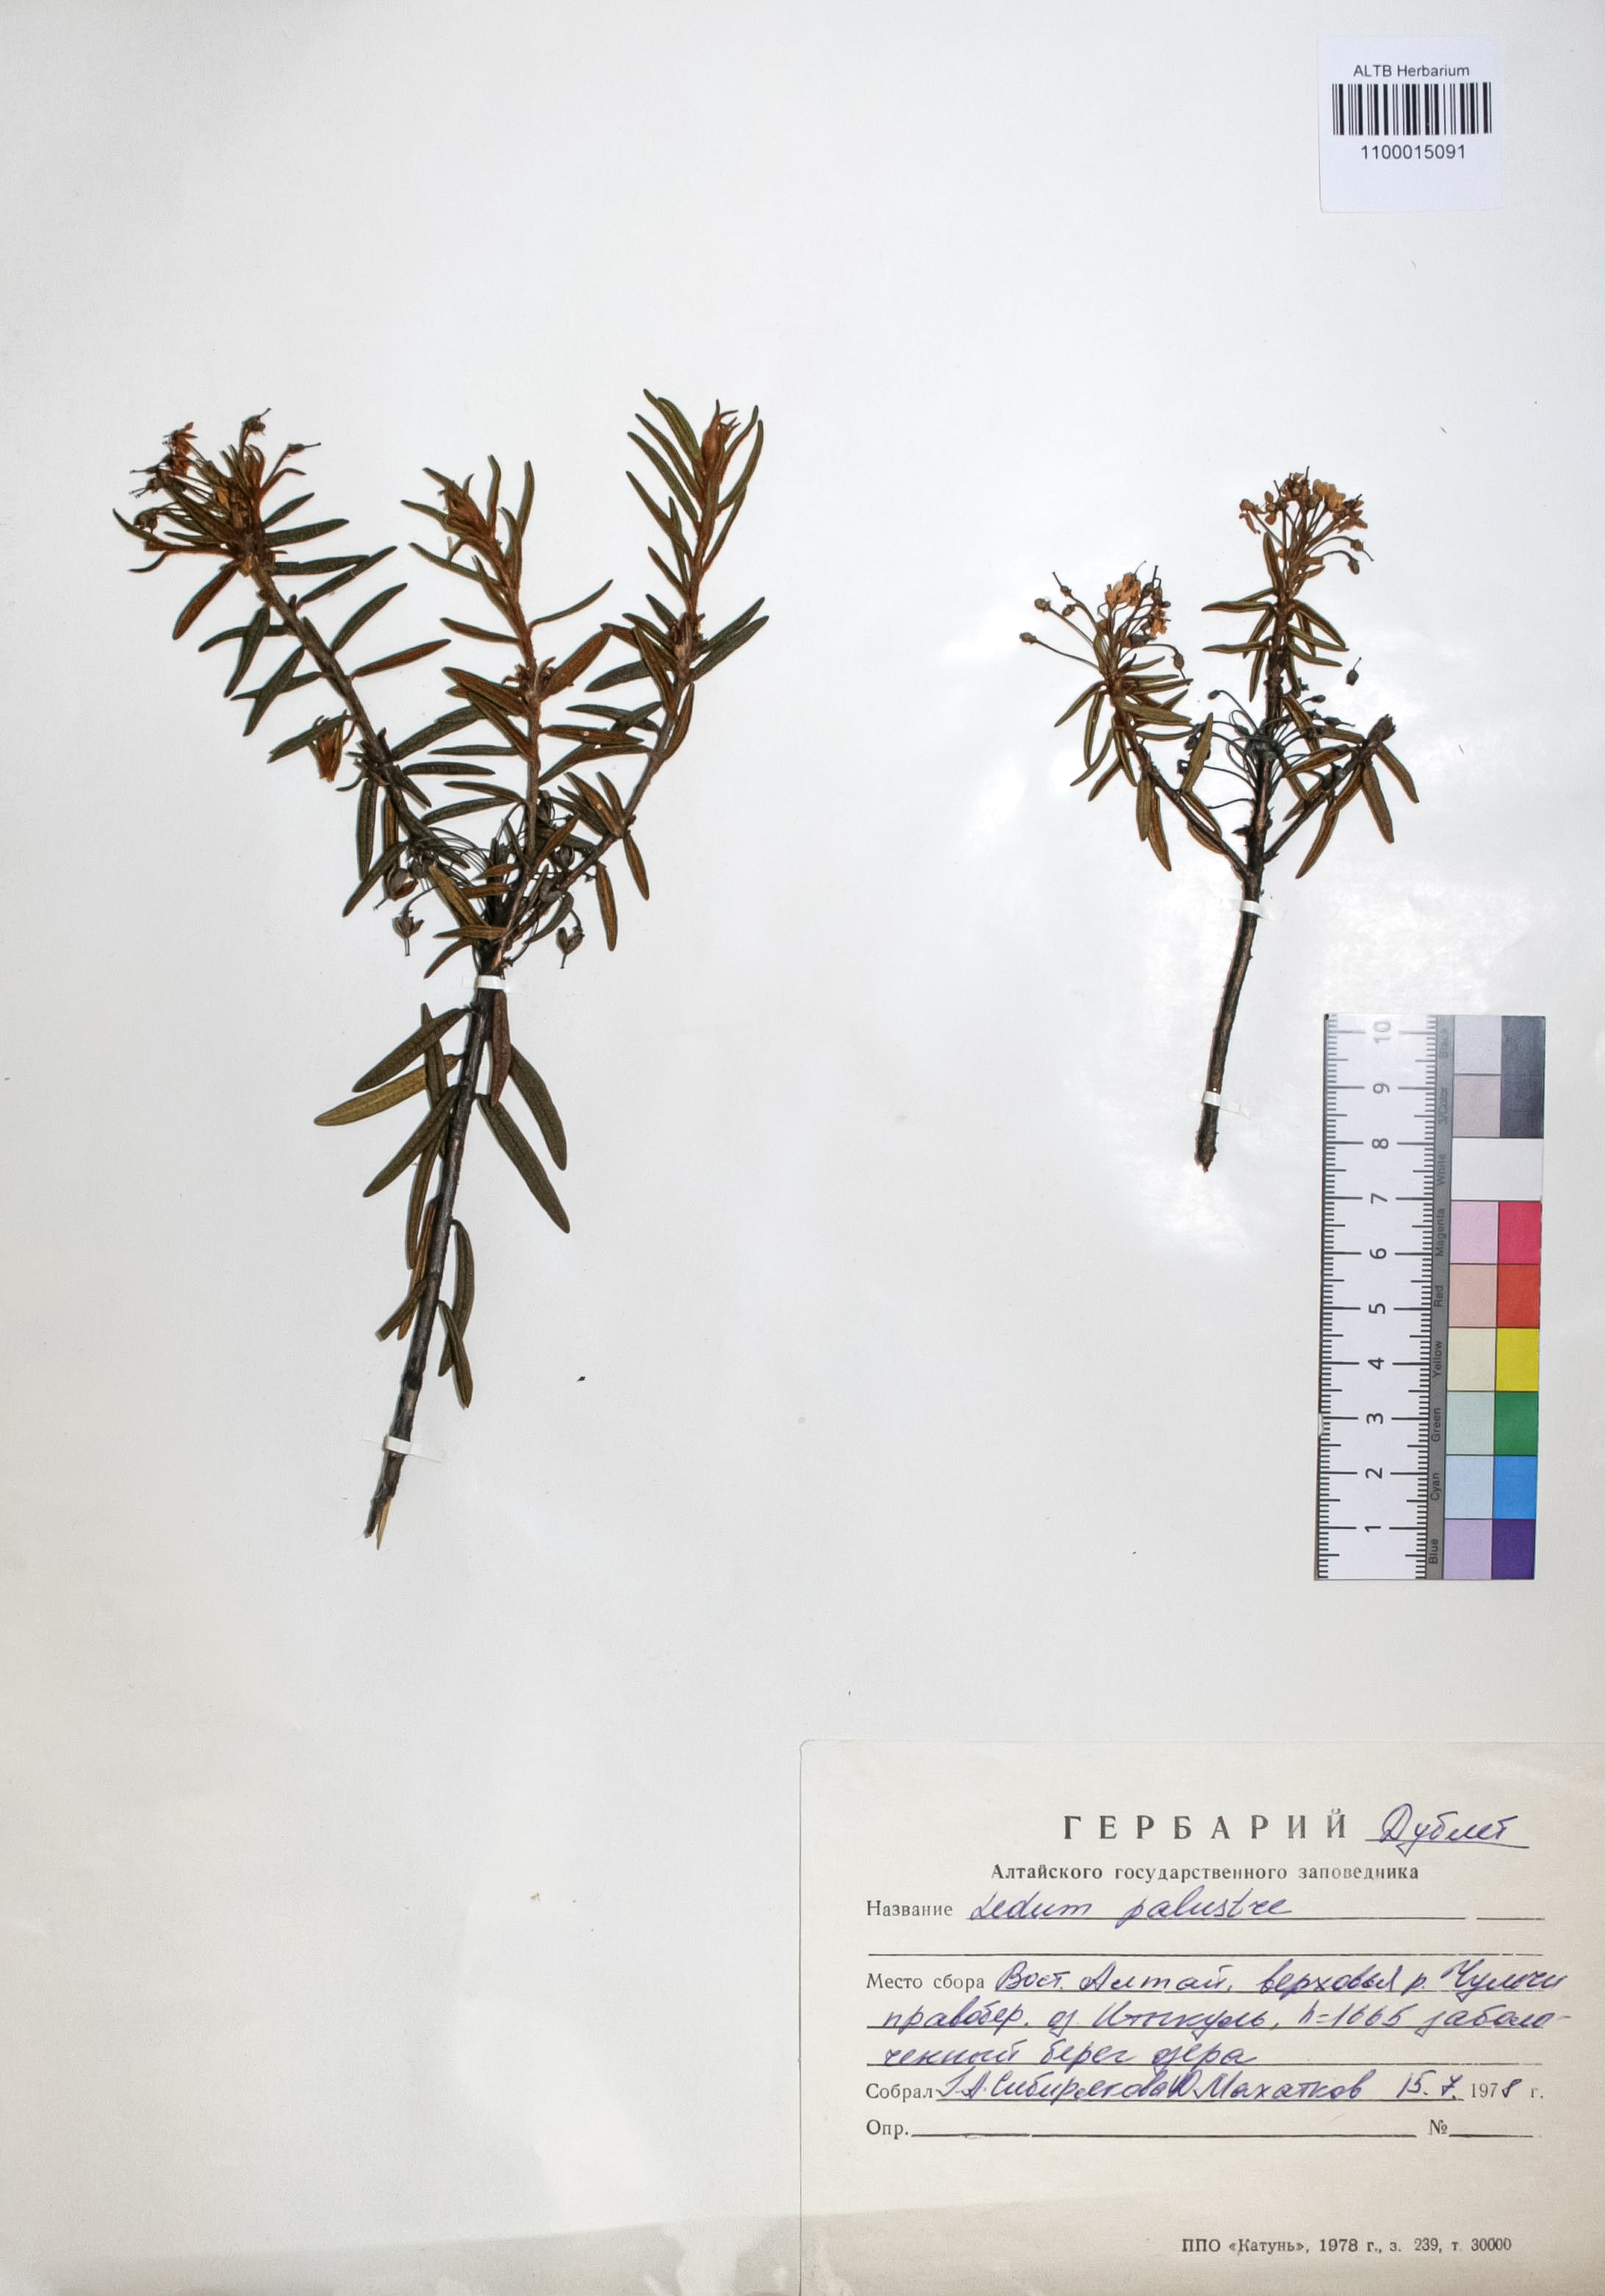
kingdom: Plantae
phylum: Tracheophyta
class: Magnoliopsida
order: Ericales
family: Ericaceae
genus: Rhododendron
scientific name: Rhododendron tomentosum
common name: Marsh labrador tea
